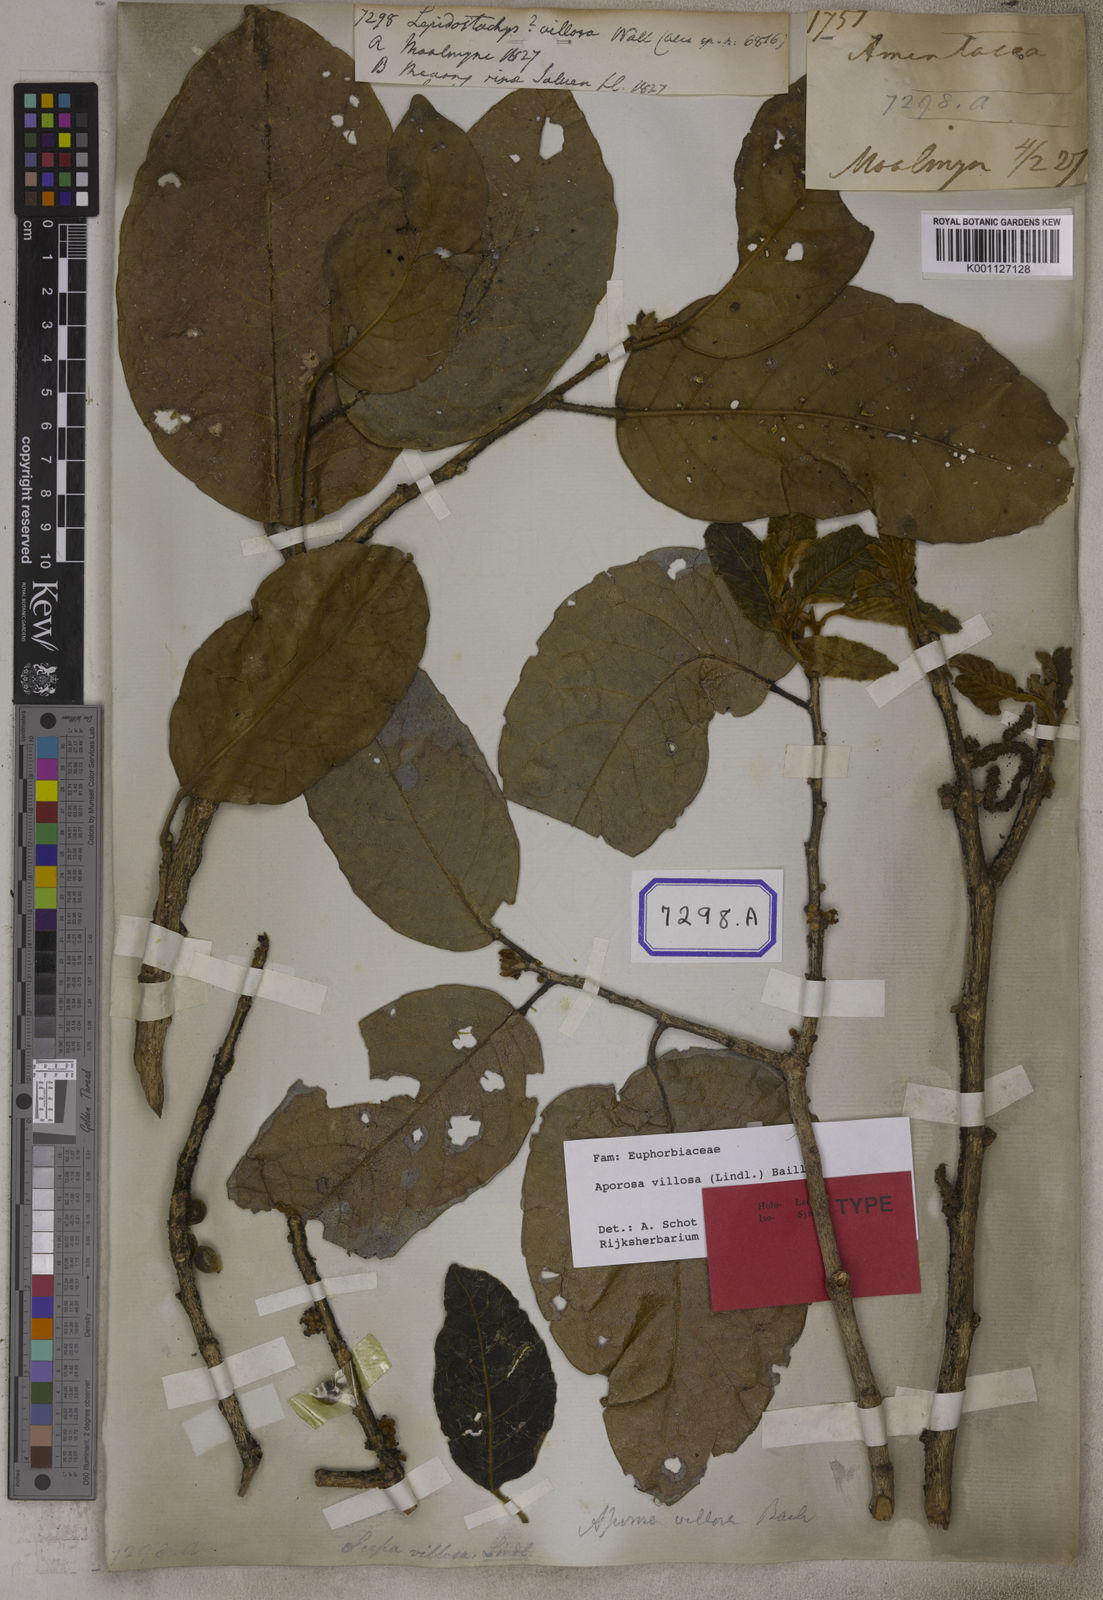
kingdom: Plantae
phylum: Tracheophyta
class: Magnoliopsida
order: Malpighiales
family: Phyllanthaceae
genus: Aporosa
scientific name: Aporosa villosa
